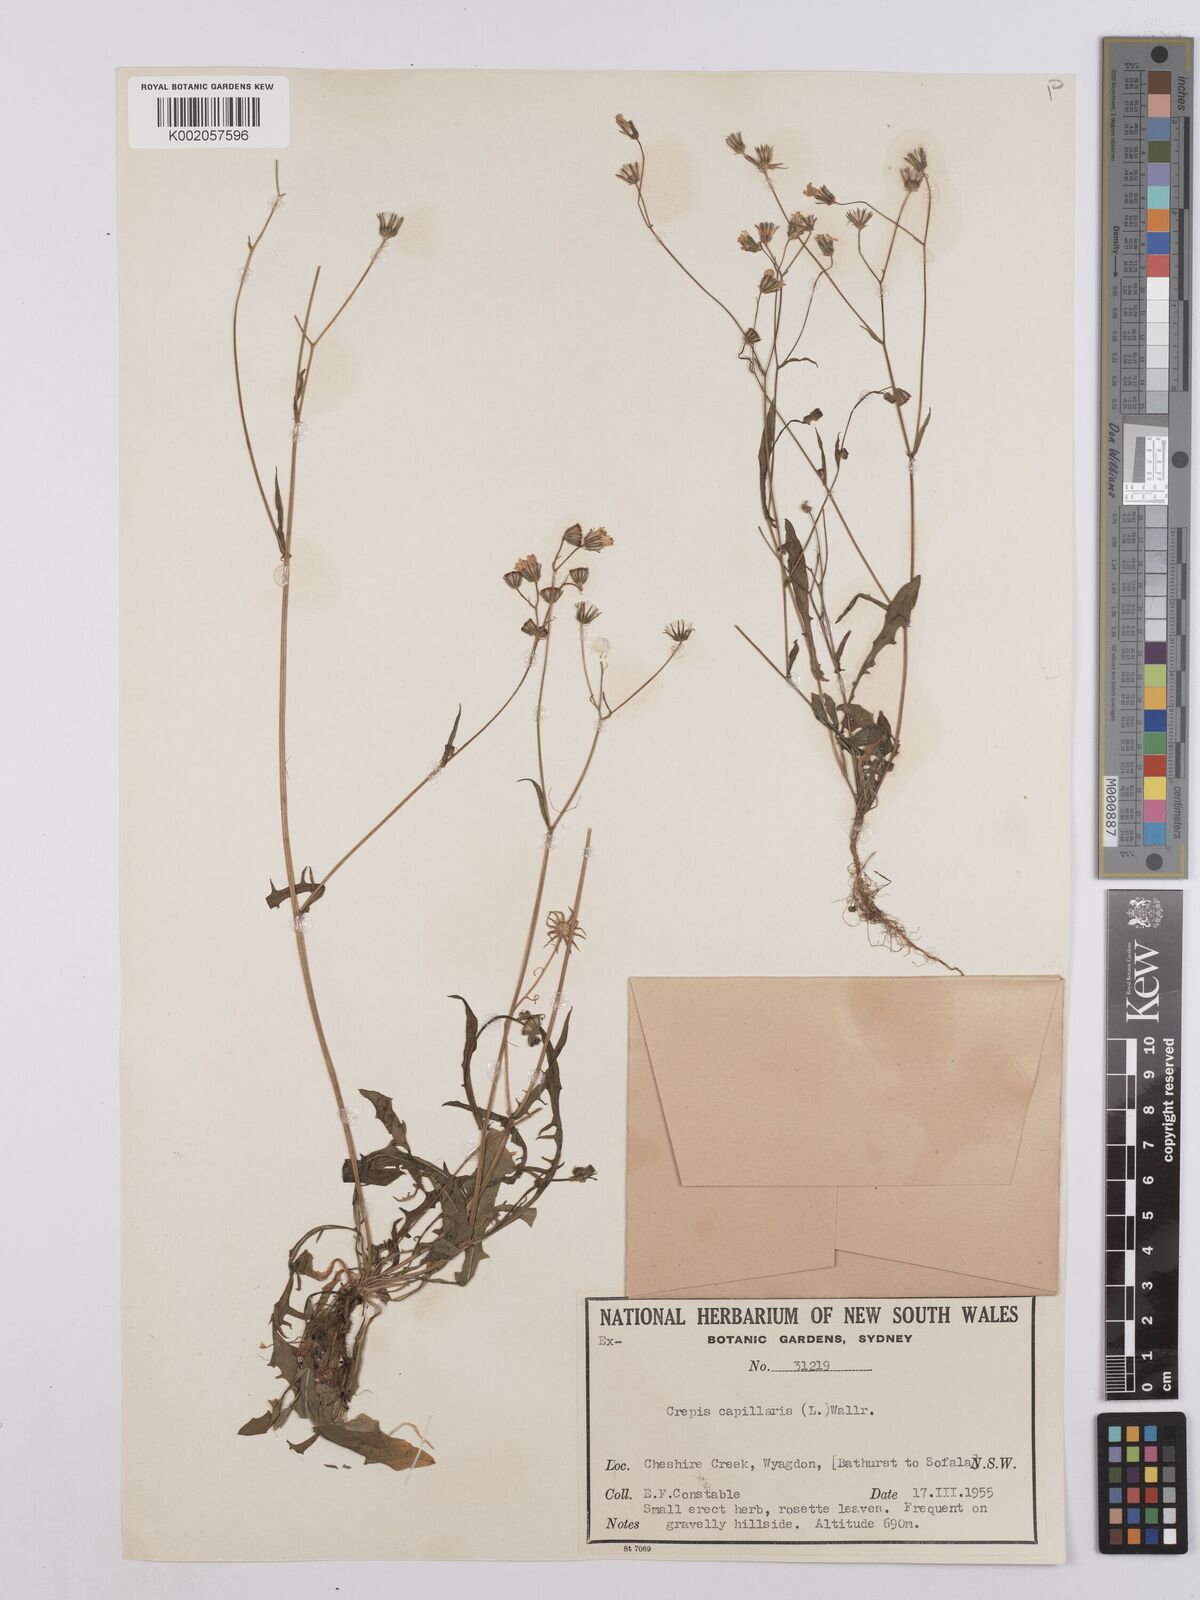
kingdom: Plantae
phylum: Tracheophyta
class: Magnoliopsida
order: Asterales
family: Asteraceae
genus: Crepis
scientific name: Crepis capillaris
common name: Smooth hawksbeard
